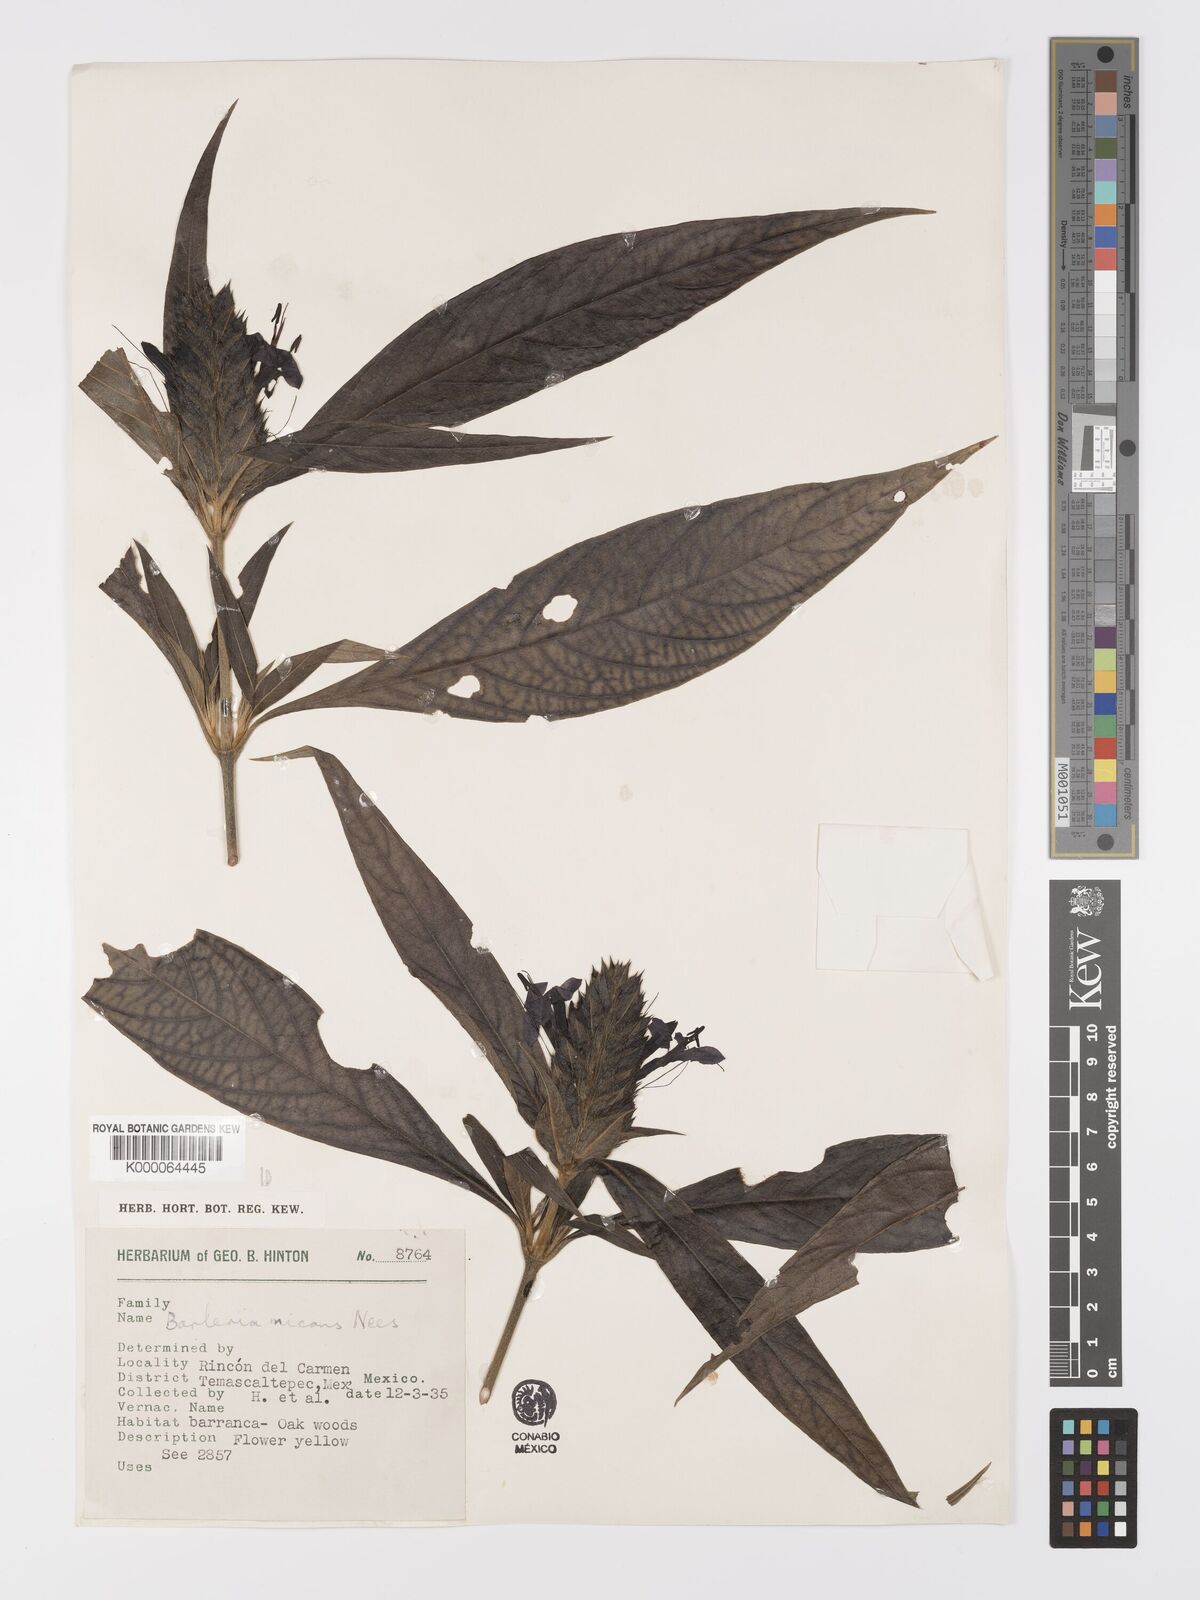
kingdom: Plantae
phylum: Tracheophyta
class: Magnoliopsida
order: Lamiales
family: Acanthaceae
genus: Barleria
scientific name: Barleria oenotheroides
